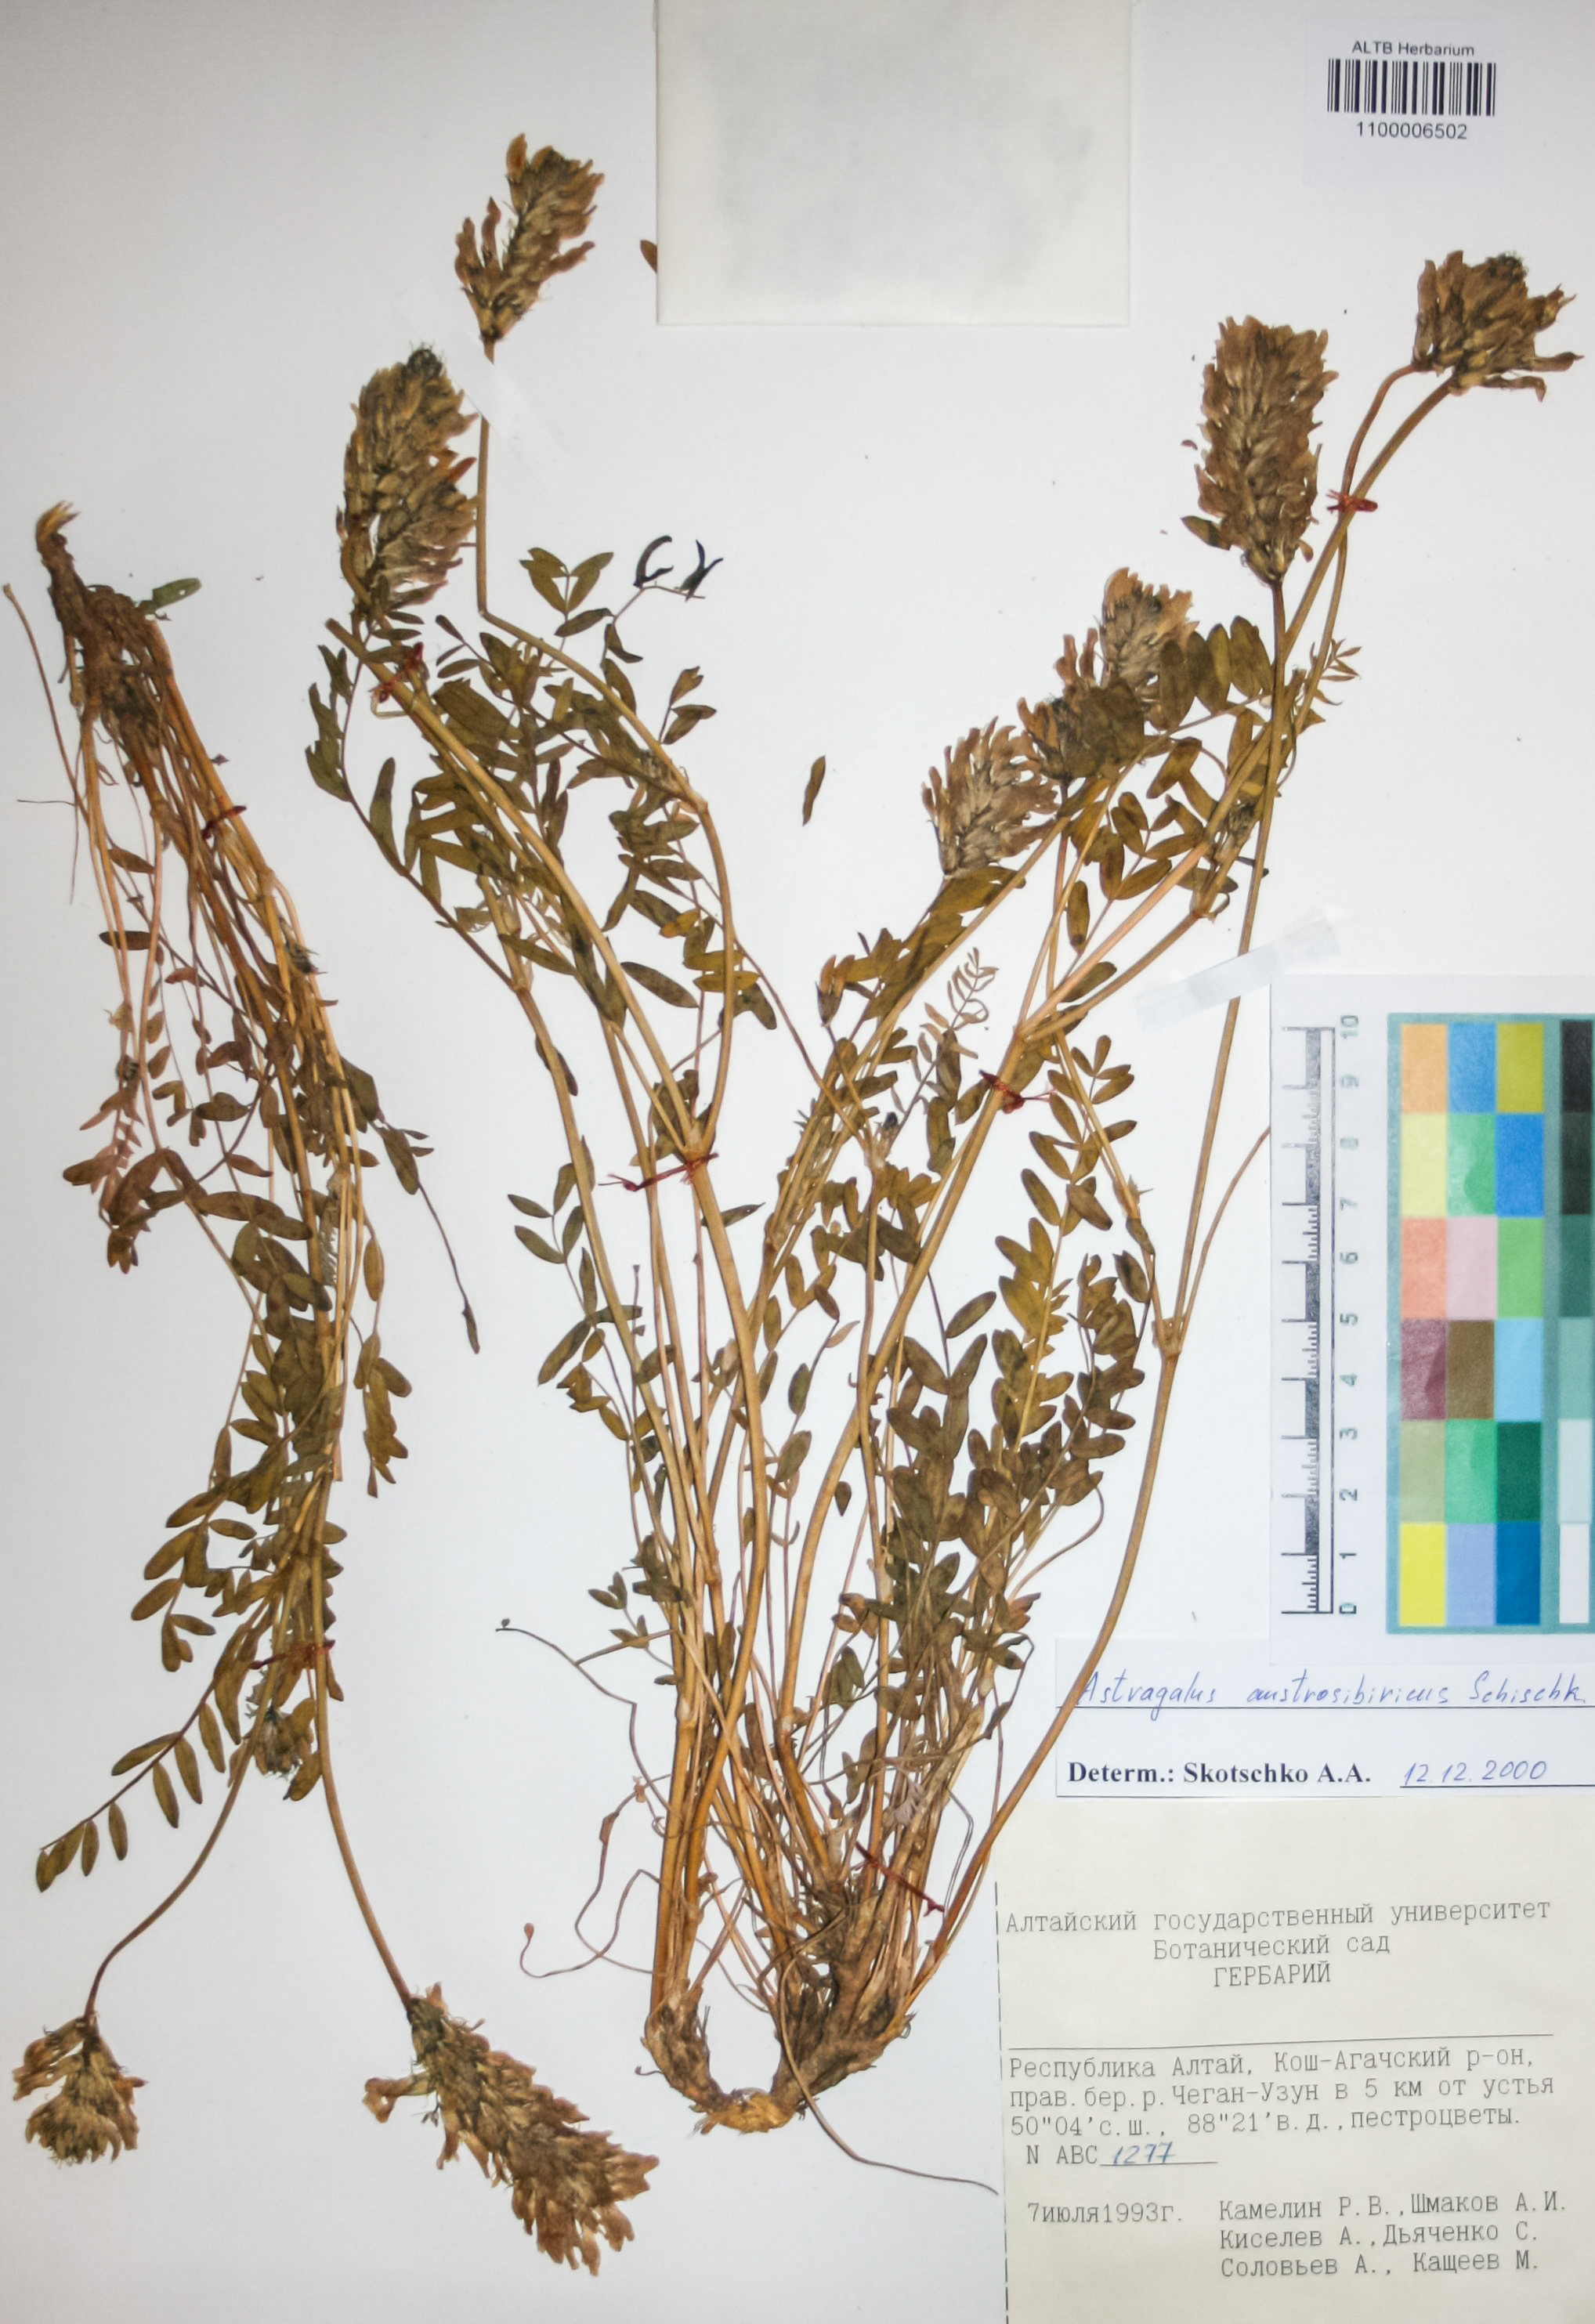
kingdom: Plantae
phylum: Tracheophyta
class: Magnoliopsida
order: Fabales
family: Fabaceae
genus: Astragalus
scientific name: Astragalus laxmannii
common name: Laxmann's milk-vetch
